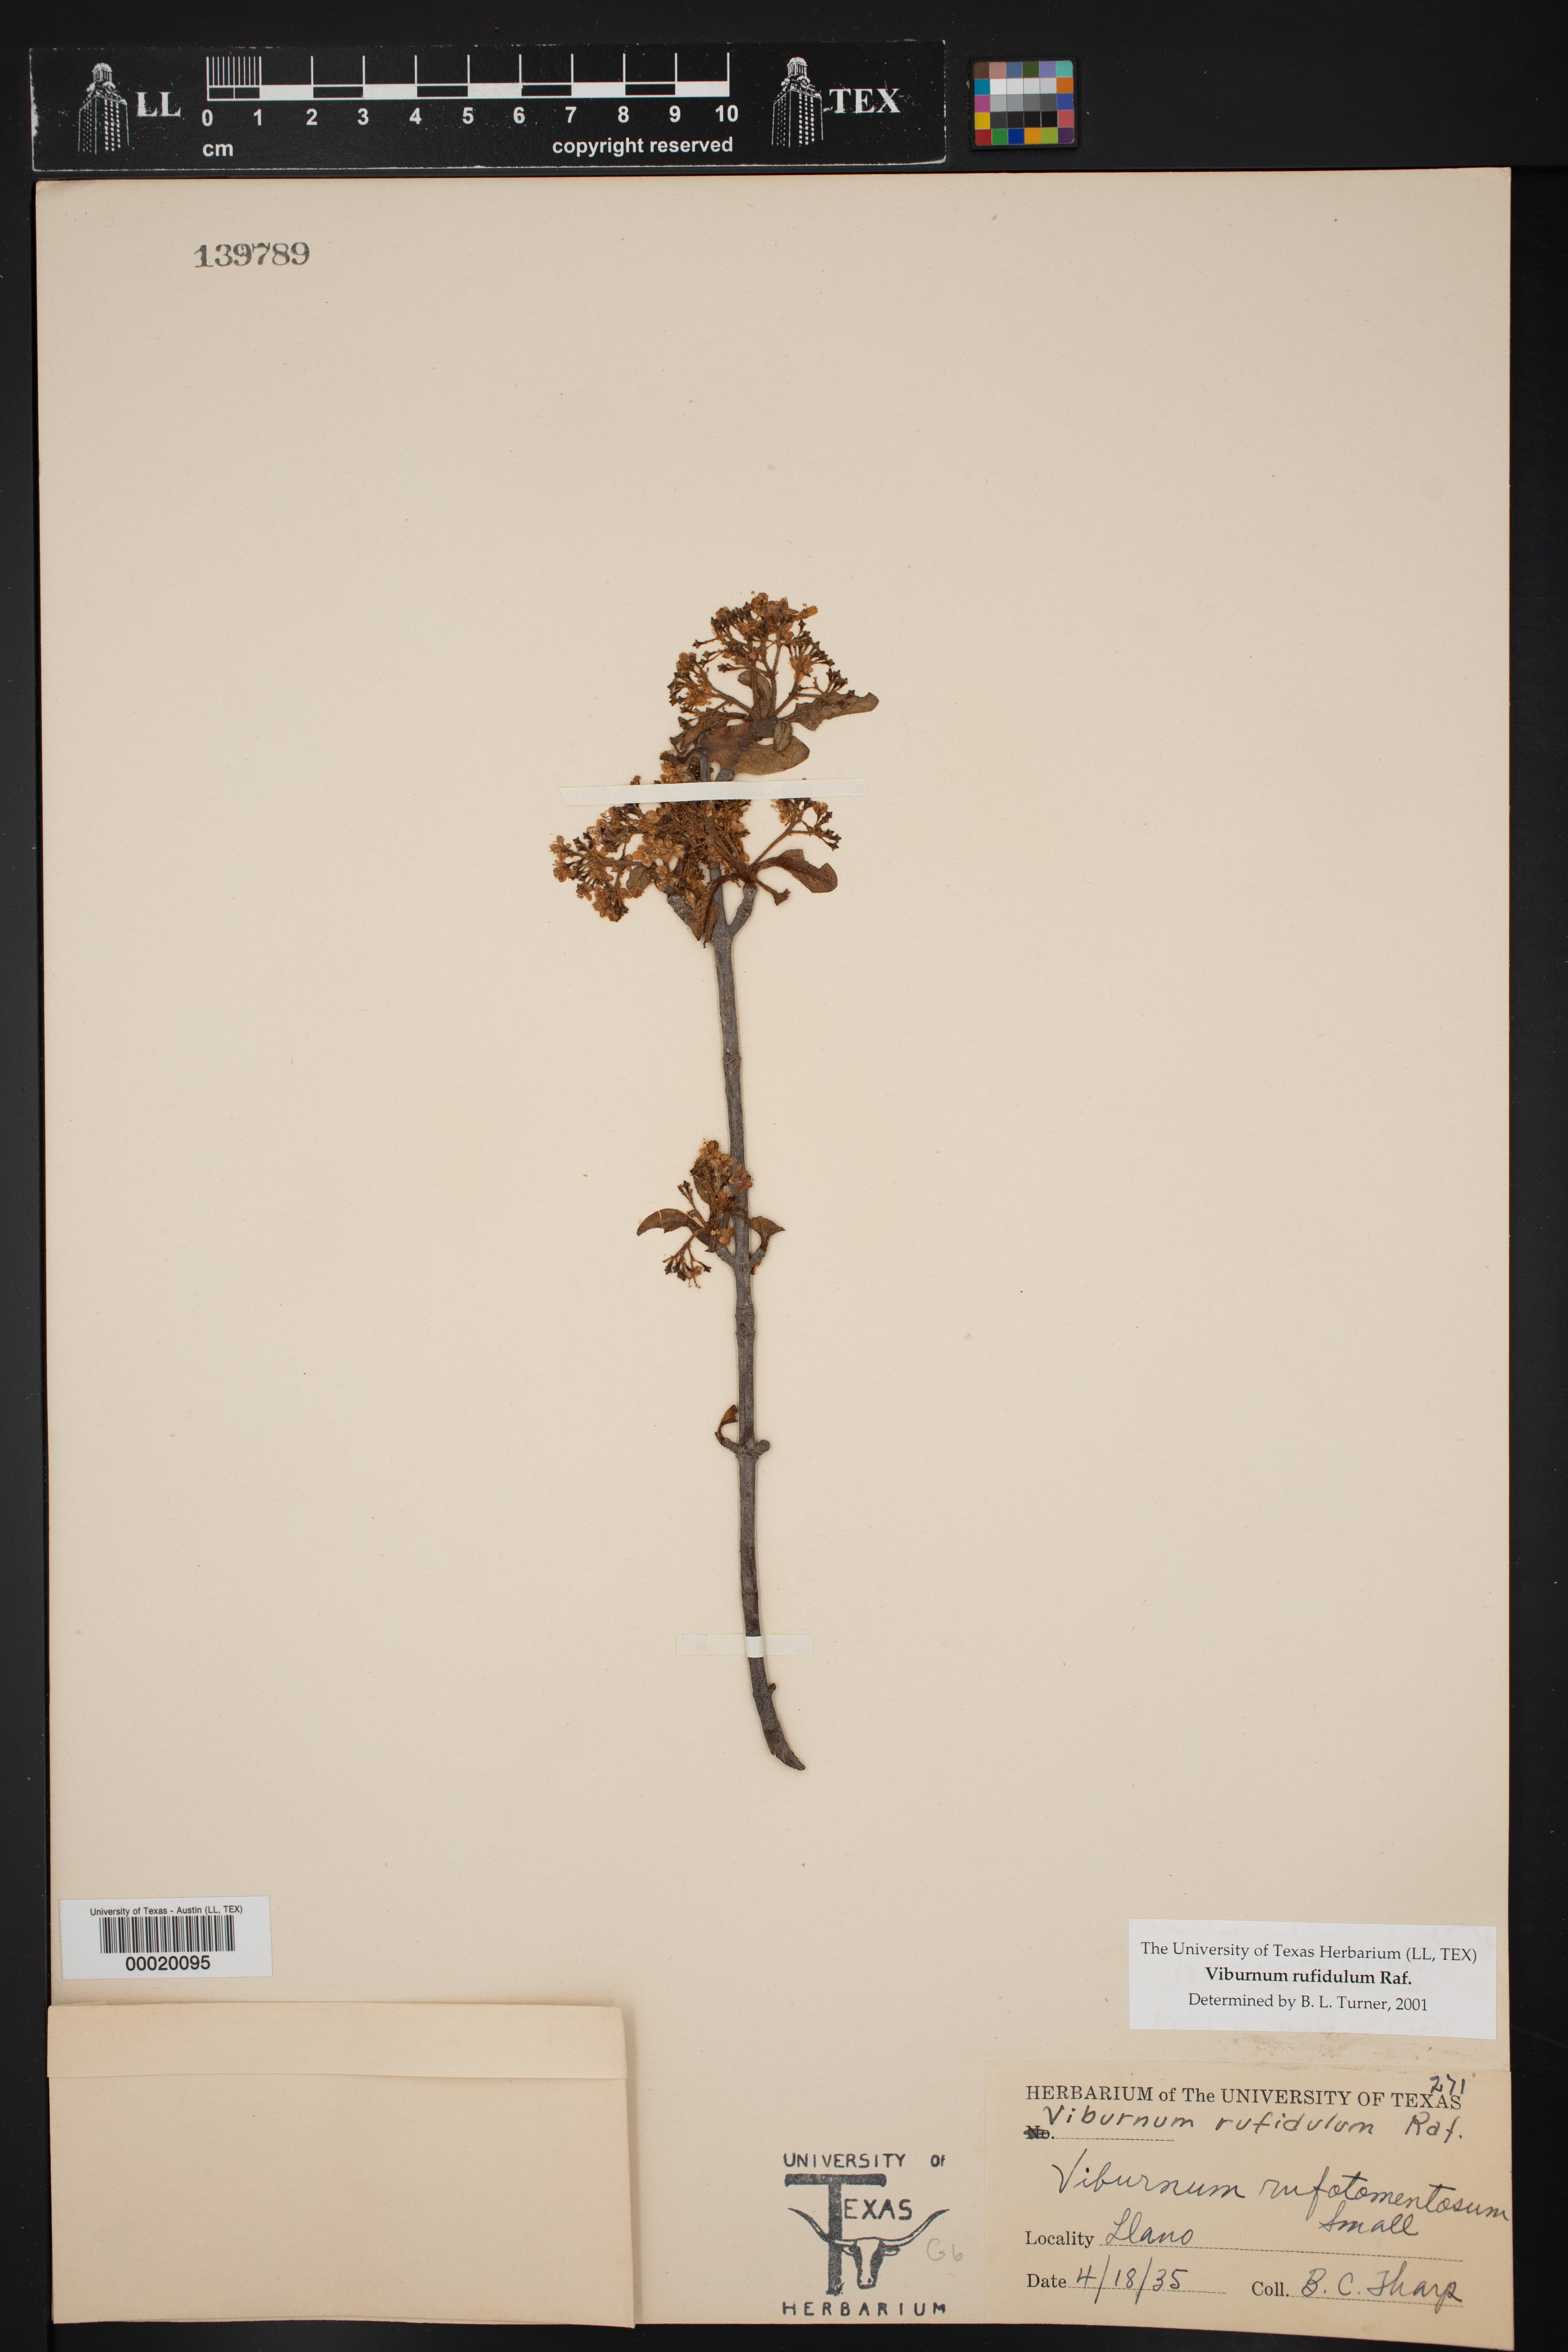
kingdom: Plantae
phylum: Tracheophyta
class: Magnoliopsida
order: Dipsacales
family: Viburnaceae
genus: Viburnum
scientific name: Viburnum rufidulum
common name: Blue haw
